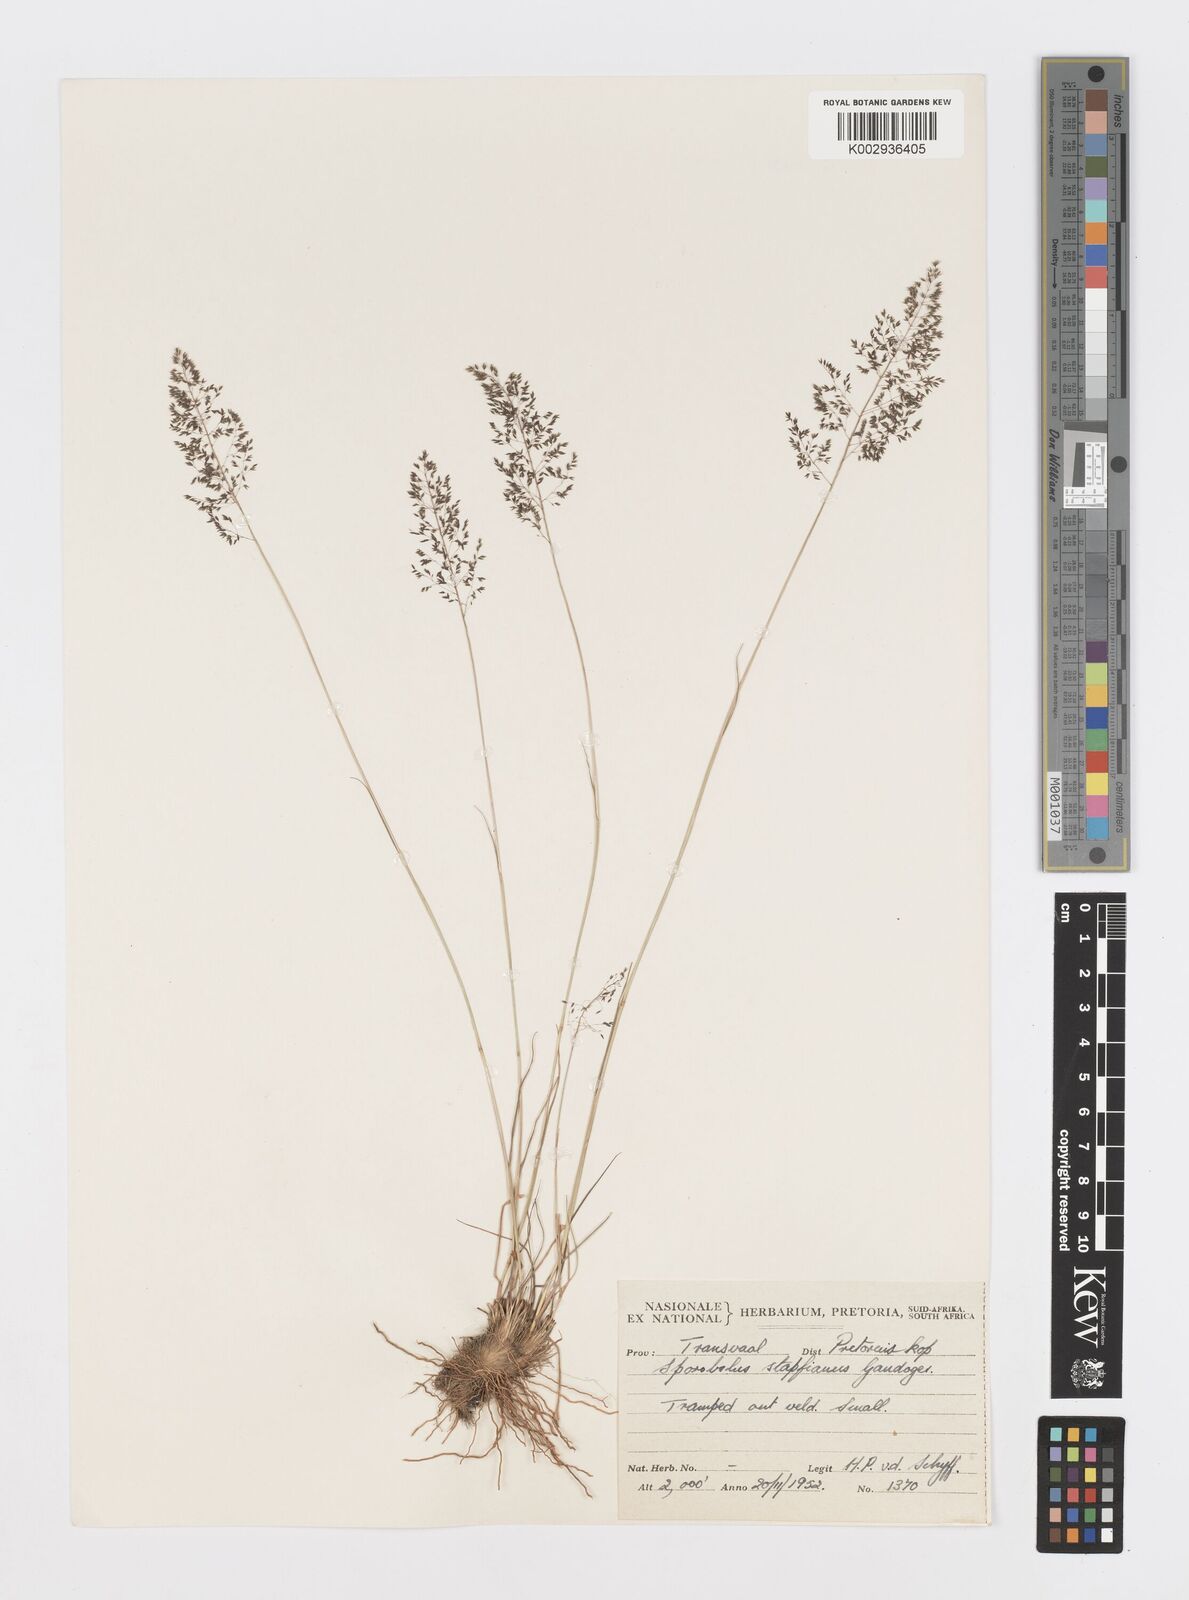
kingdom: Plantae
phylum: Tracheophyta
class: Liliopsida
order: Poales
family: Poaceae
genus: Sporobolus
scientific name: Sporobolus stapfianus
